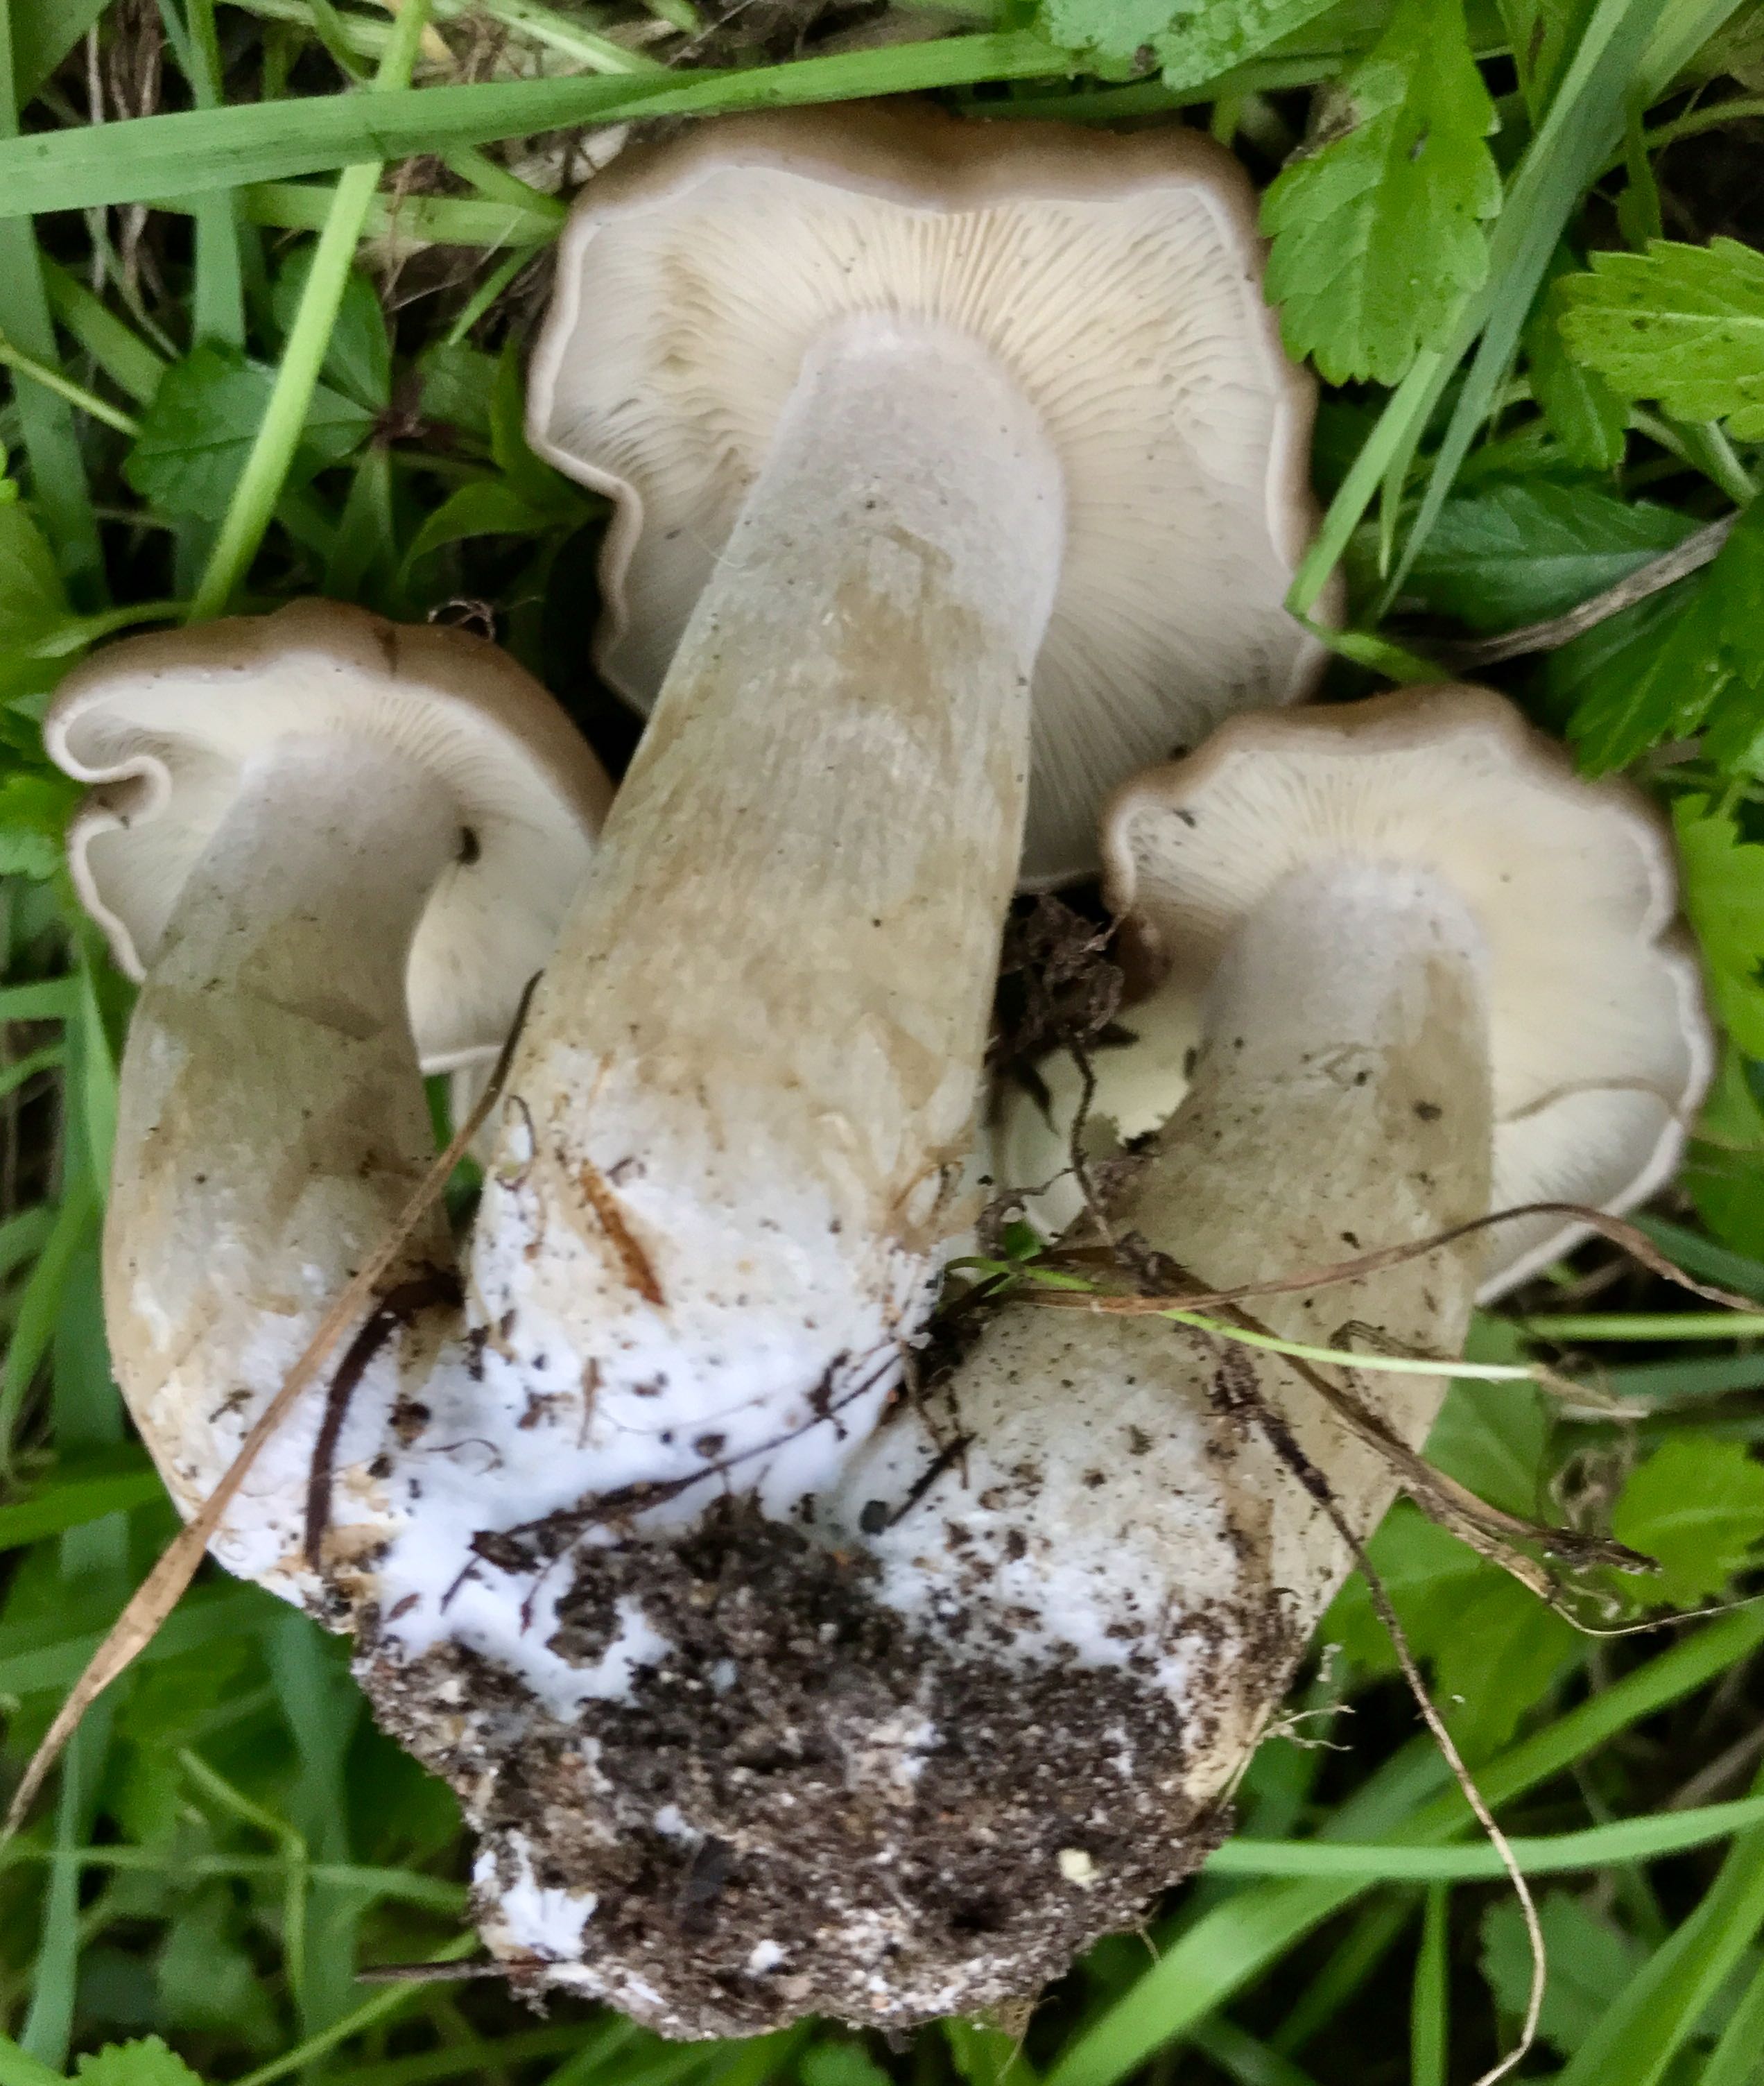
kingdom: Fungi
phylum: Basidiomycota
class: Agaricomycetes
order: Agaricales
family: Lyophyllaceae
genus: Lyophyllum
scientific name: Lyophyllum decastes
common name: røggrå gråblad
